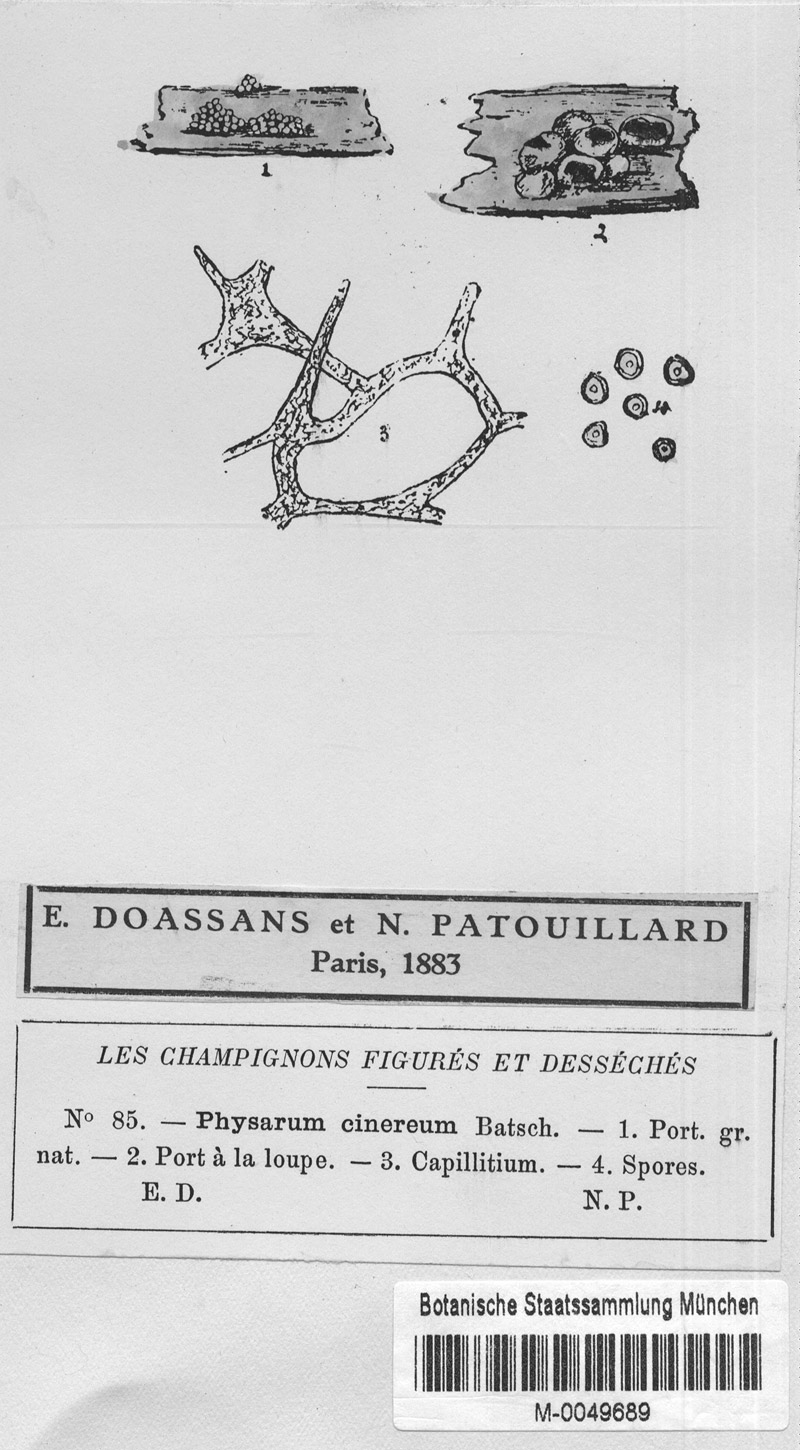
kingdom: Protozoa
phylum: Mycetozoa
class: Myxomycetes
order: Physarales
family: Physaraceae
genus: Physarum
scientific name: Physarum cinereum
